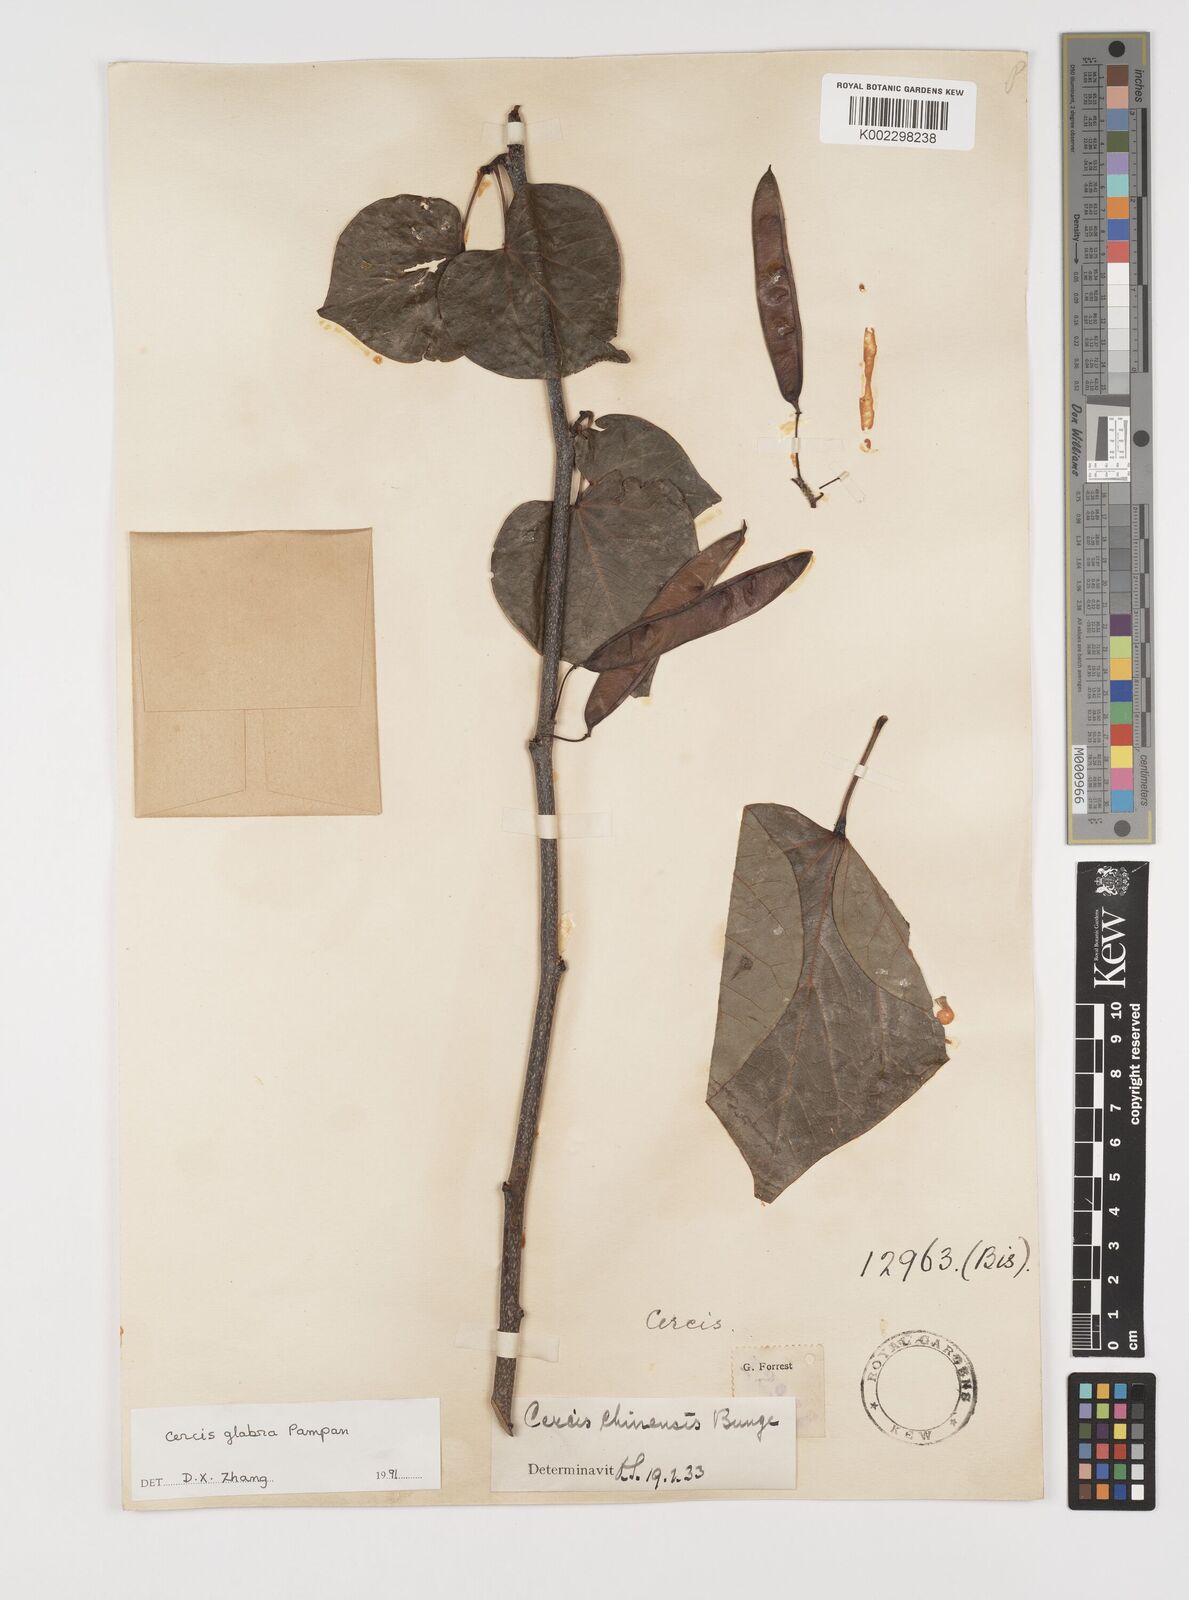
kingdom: Plantae
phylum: Tracheophyta
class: Magnoliopsida
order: Fabales
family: Fabaceae
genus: Cercis
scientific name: Cercis glabra
